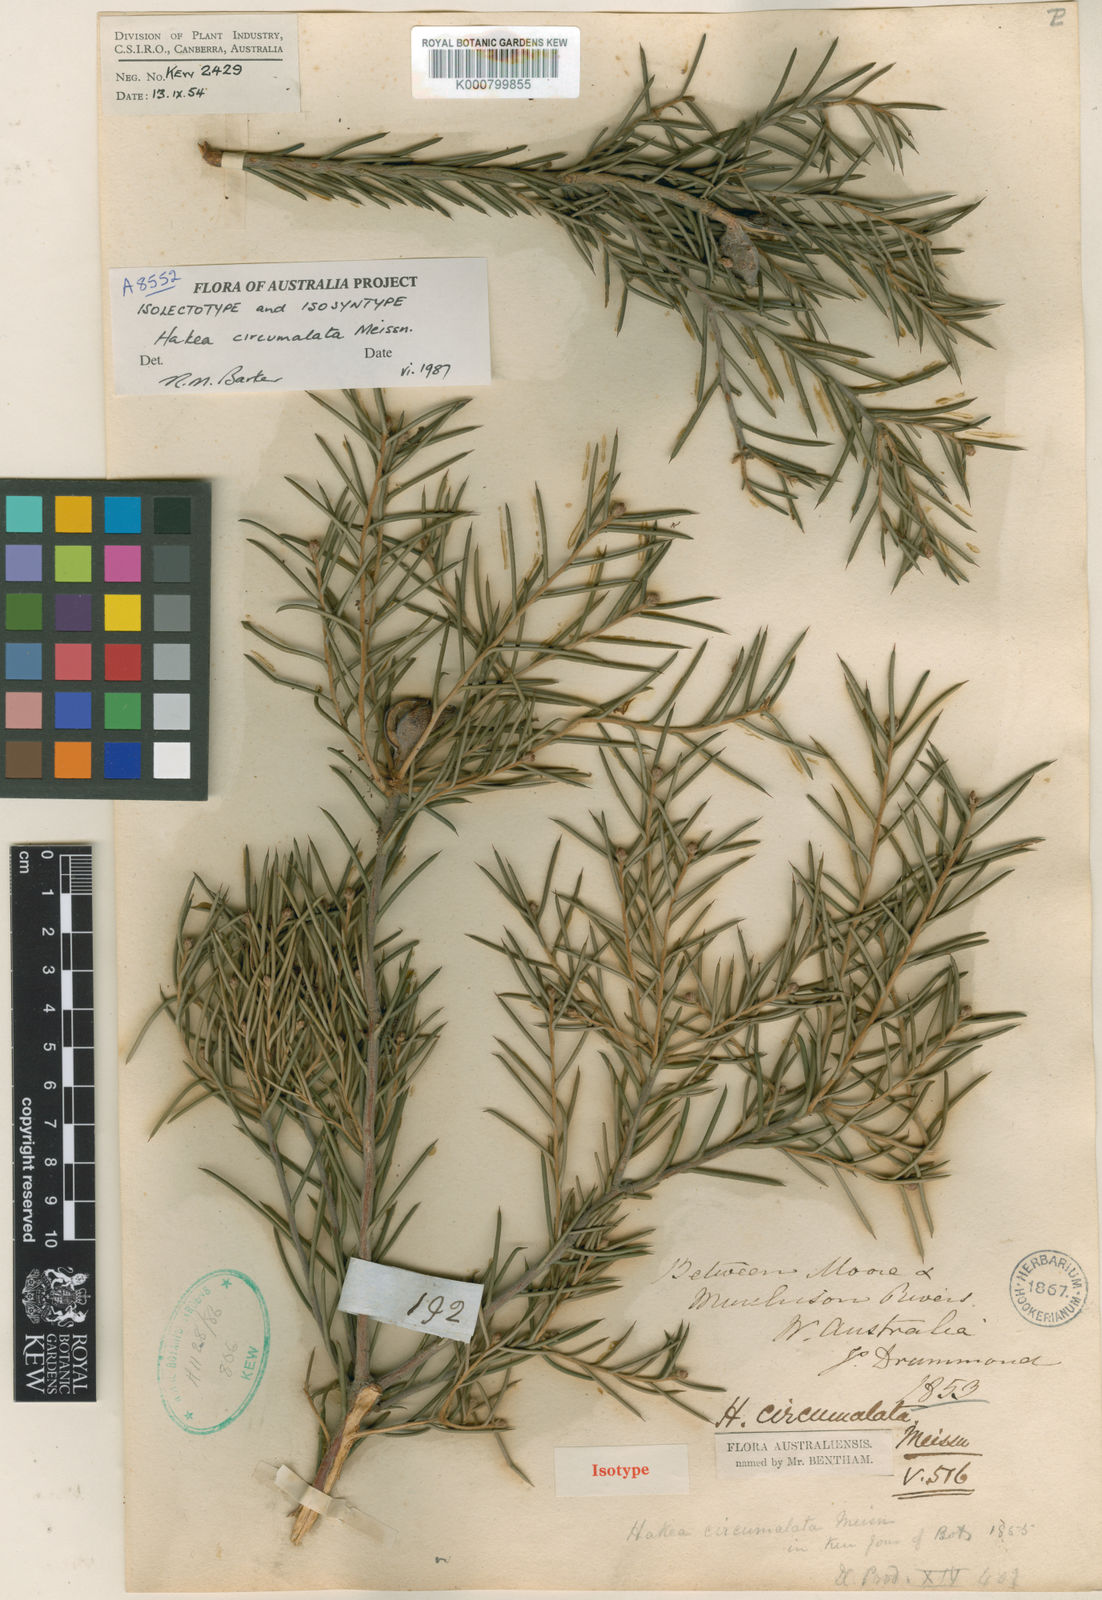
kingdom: Plantae
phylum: Tracheophyta
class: Magnoliopsida
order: Proteales
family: Proteaceae
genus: Hakea
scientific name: Hakea circumalata
